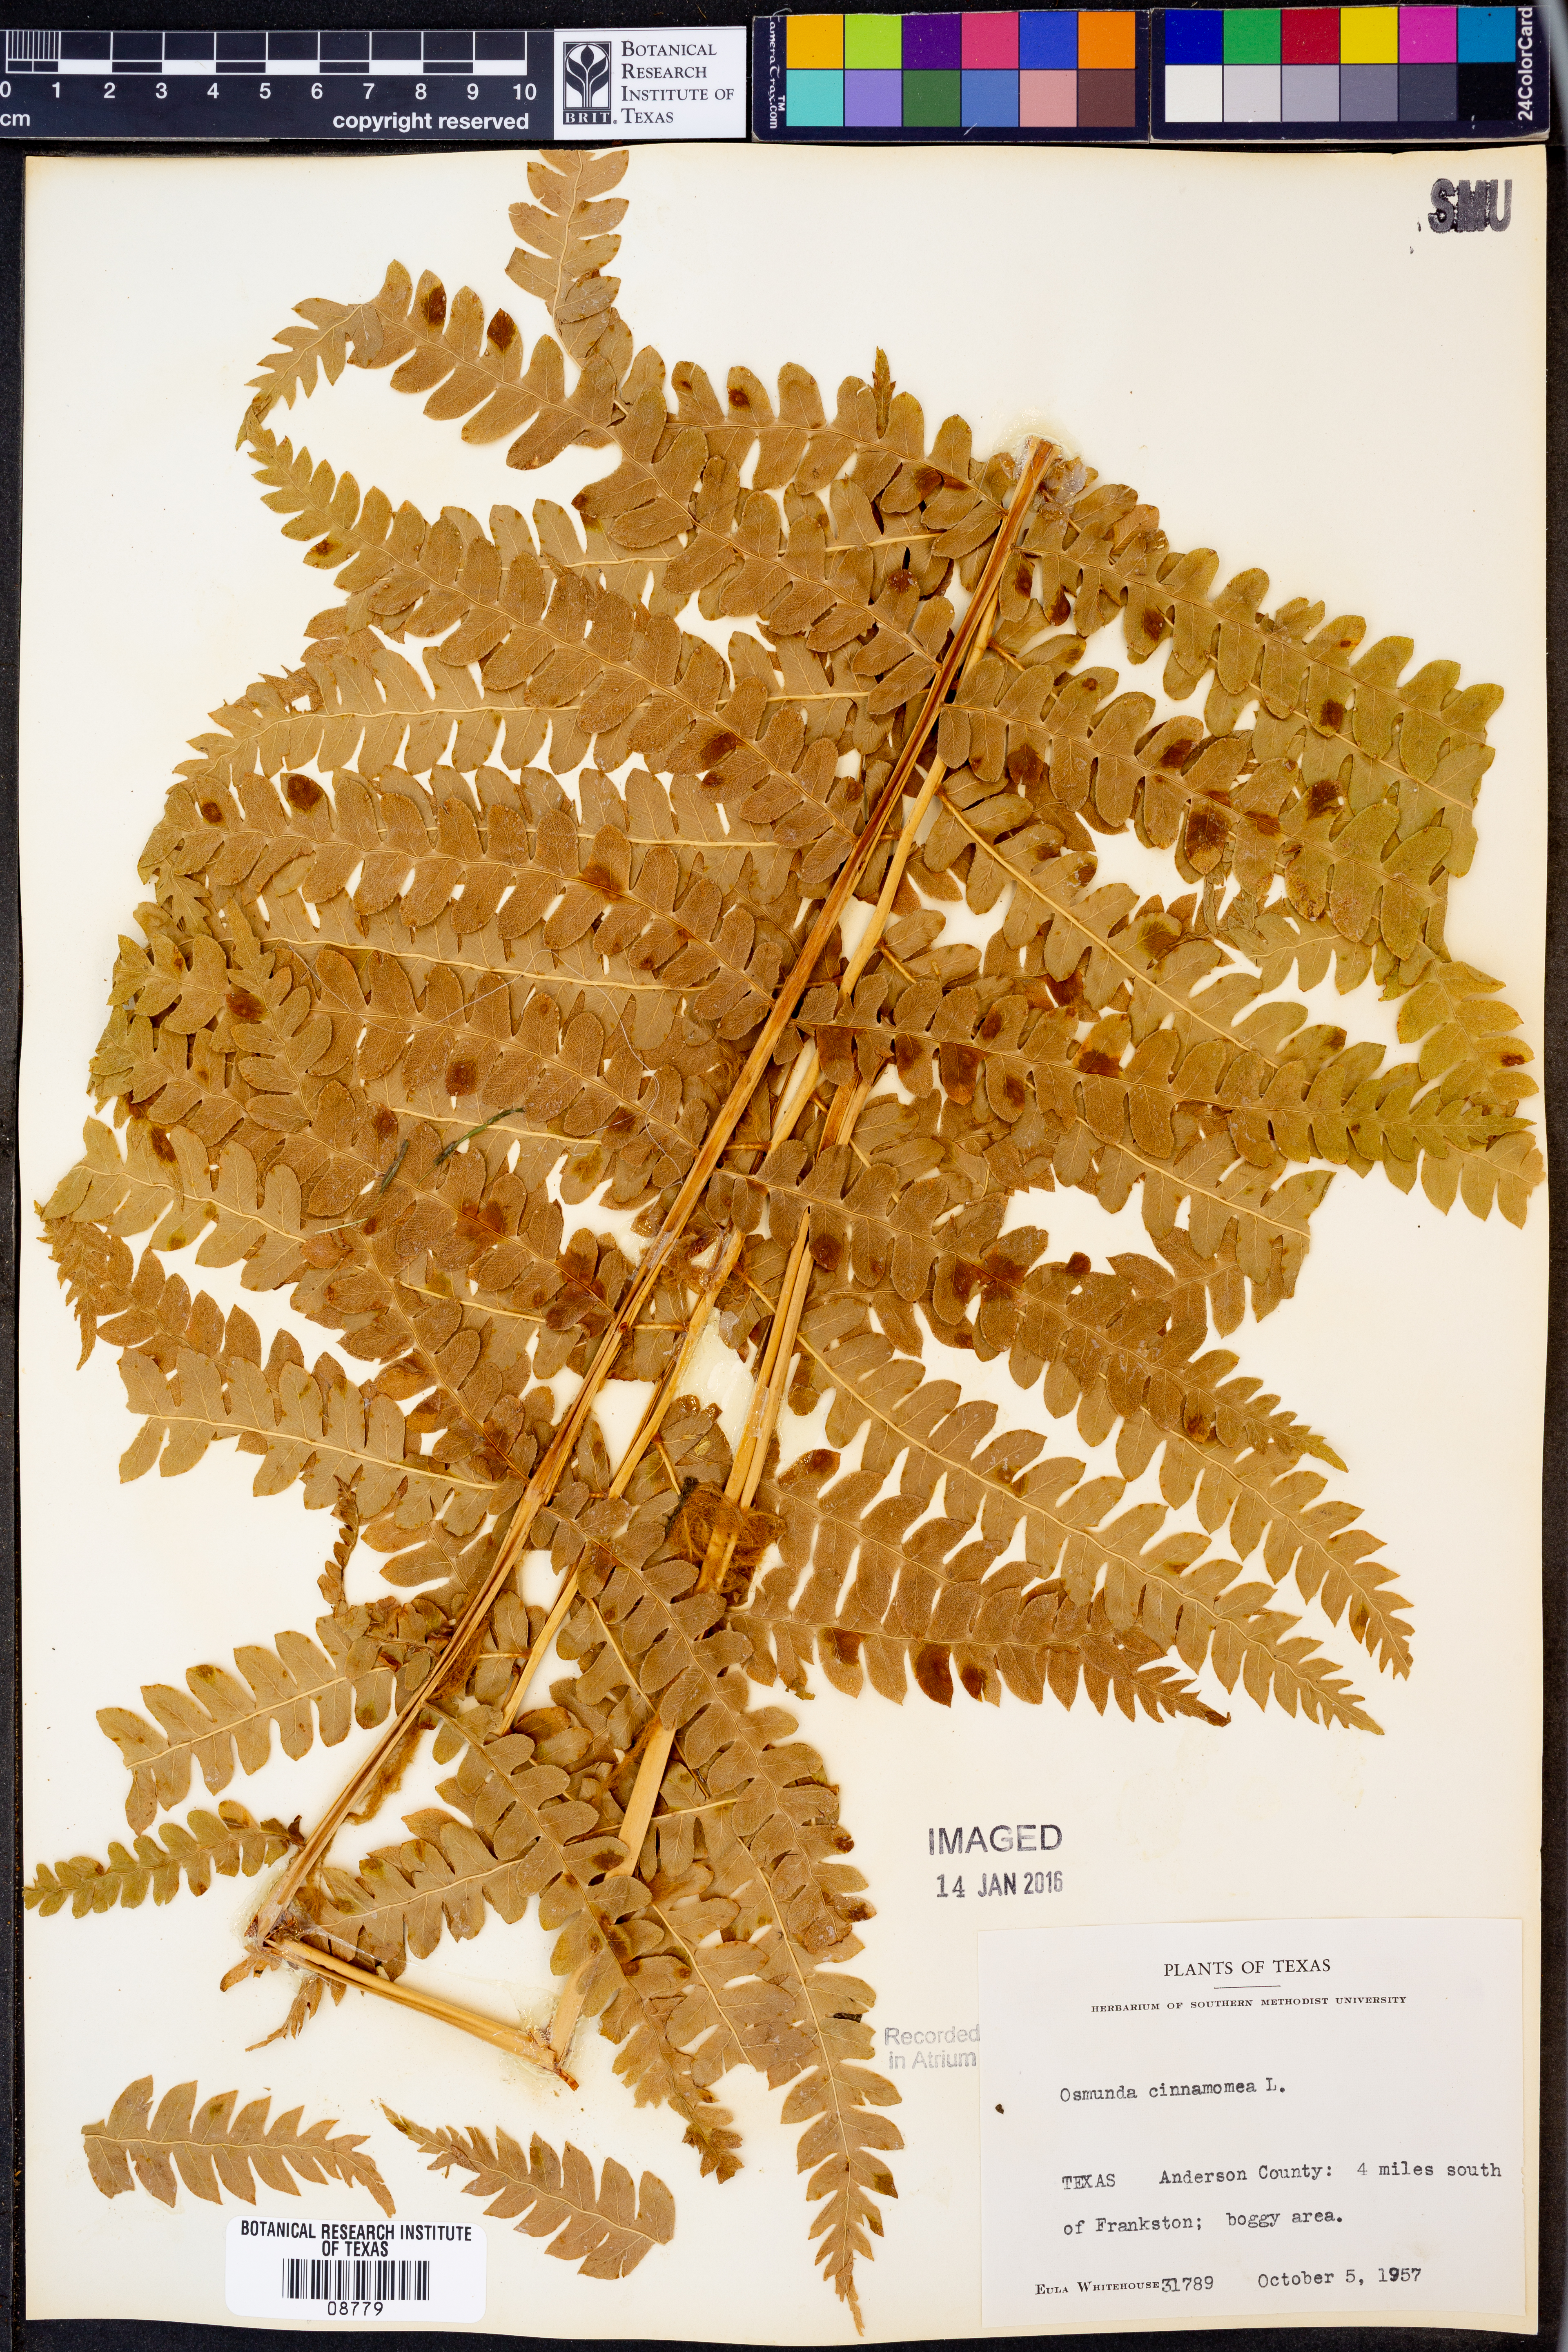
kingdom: Plantae
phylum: Tracheophyta
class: Polypodiopsida
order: Osmundales
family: Osmundaceae
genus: Osmundastrum
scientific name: Osmundastrum cinnamomeum
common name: Cinnamon fern
